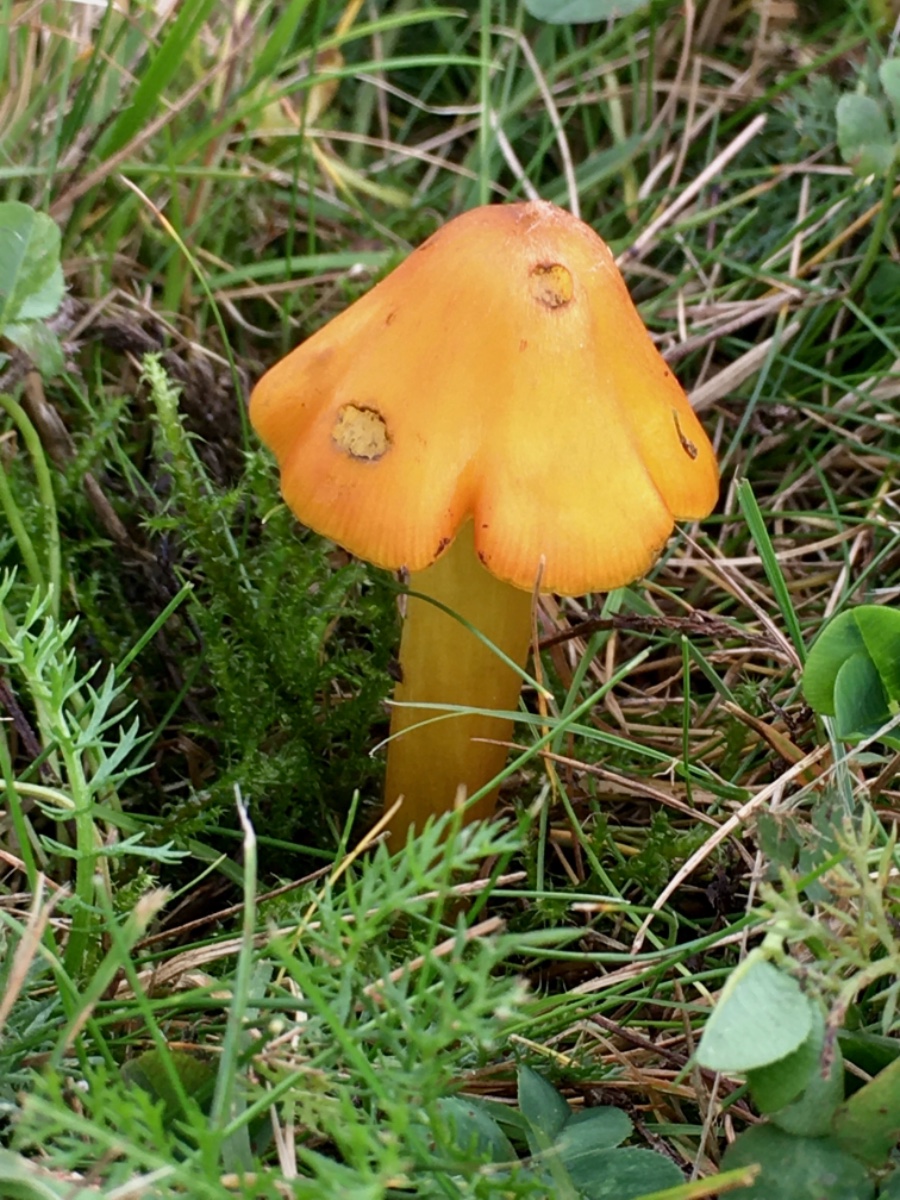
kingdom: Fungi
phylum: Basidiomycota
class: Agaricomycetes
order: Agaricales
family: Hygrophoraceae
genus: Hygrocybe
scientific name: Hygrocybe conica
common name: kegle-vokshat
